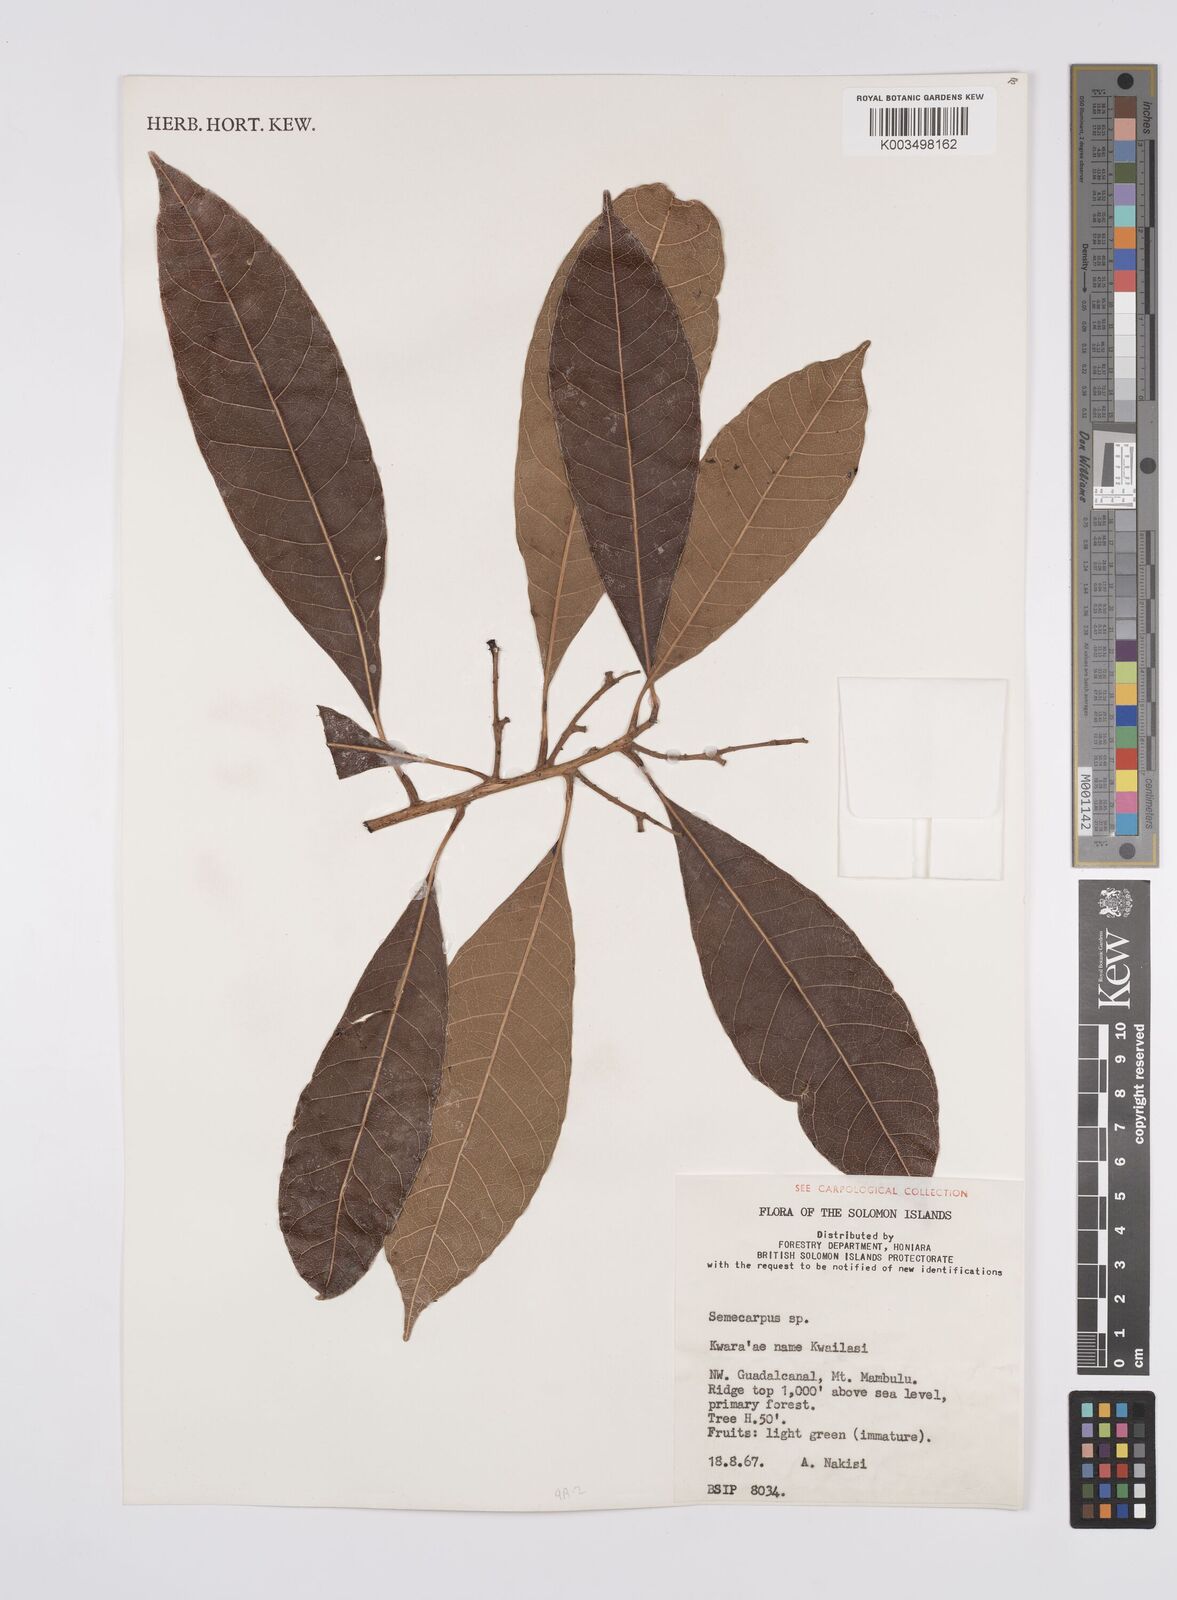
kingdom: Plantae
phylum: Tracheophyta
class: Magnoliopsida
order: Sapindales
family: Anacardiaceae
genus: Semecarpus
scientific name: Semecarpus
